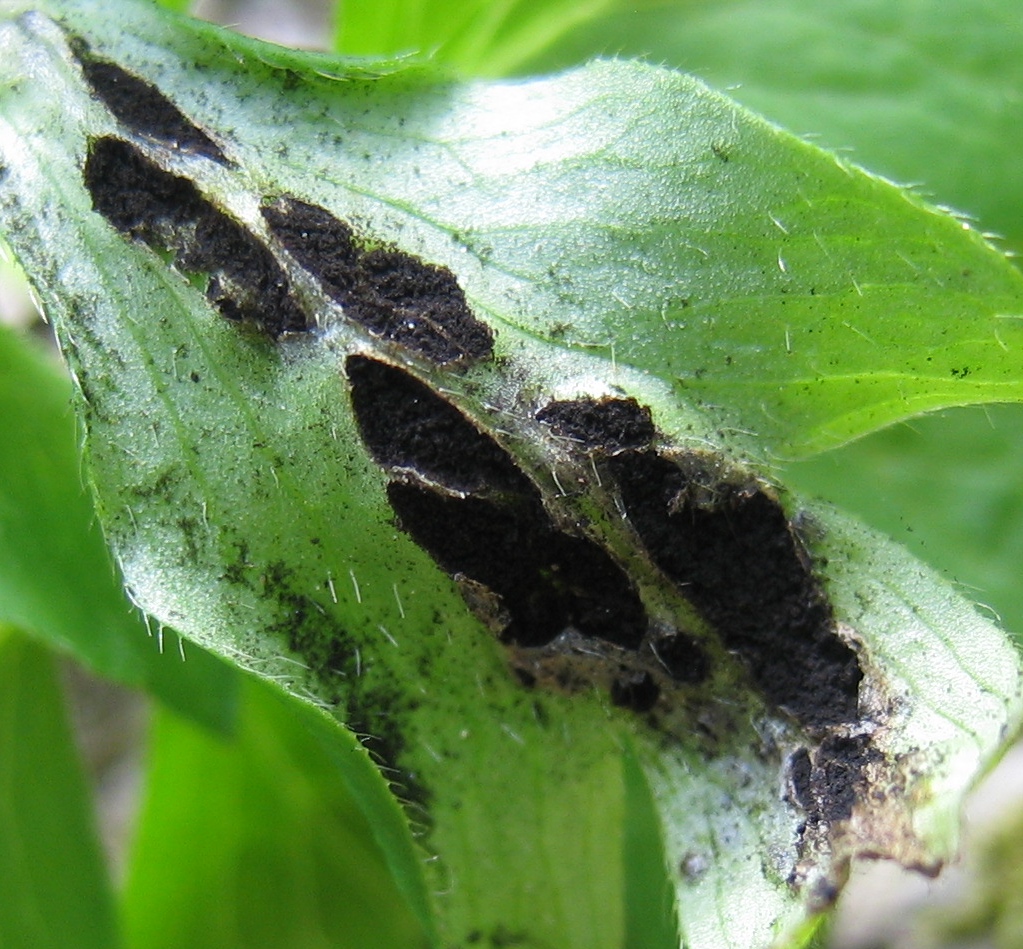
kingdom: Fungi
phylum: Basidiomycota
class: Ustilaginomycetes
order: Urocystidales
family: Urocystidaceae
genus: Urocystis
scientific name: Urocystis anemones
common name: anemone-brand
